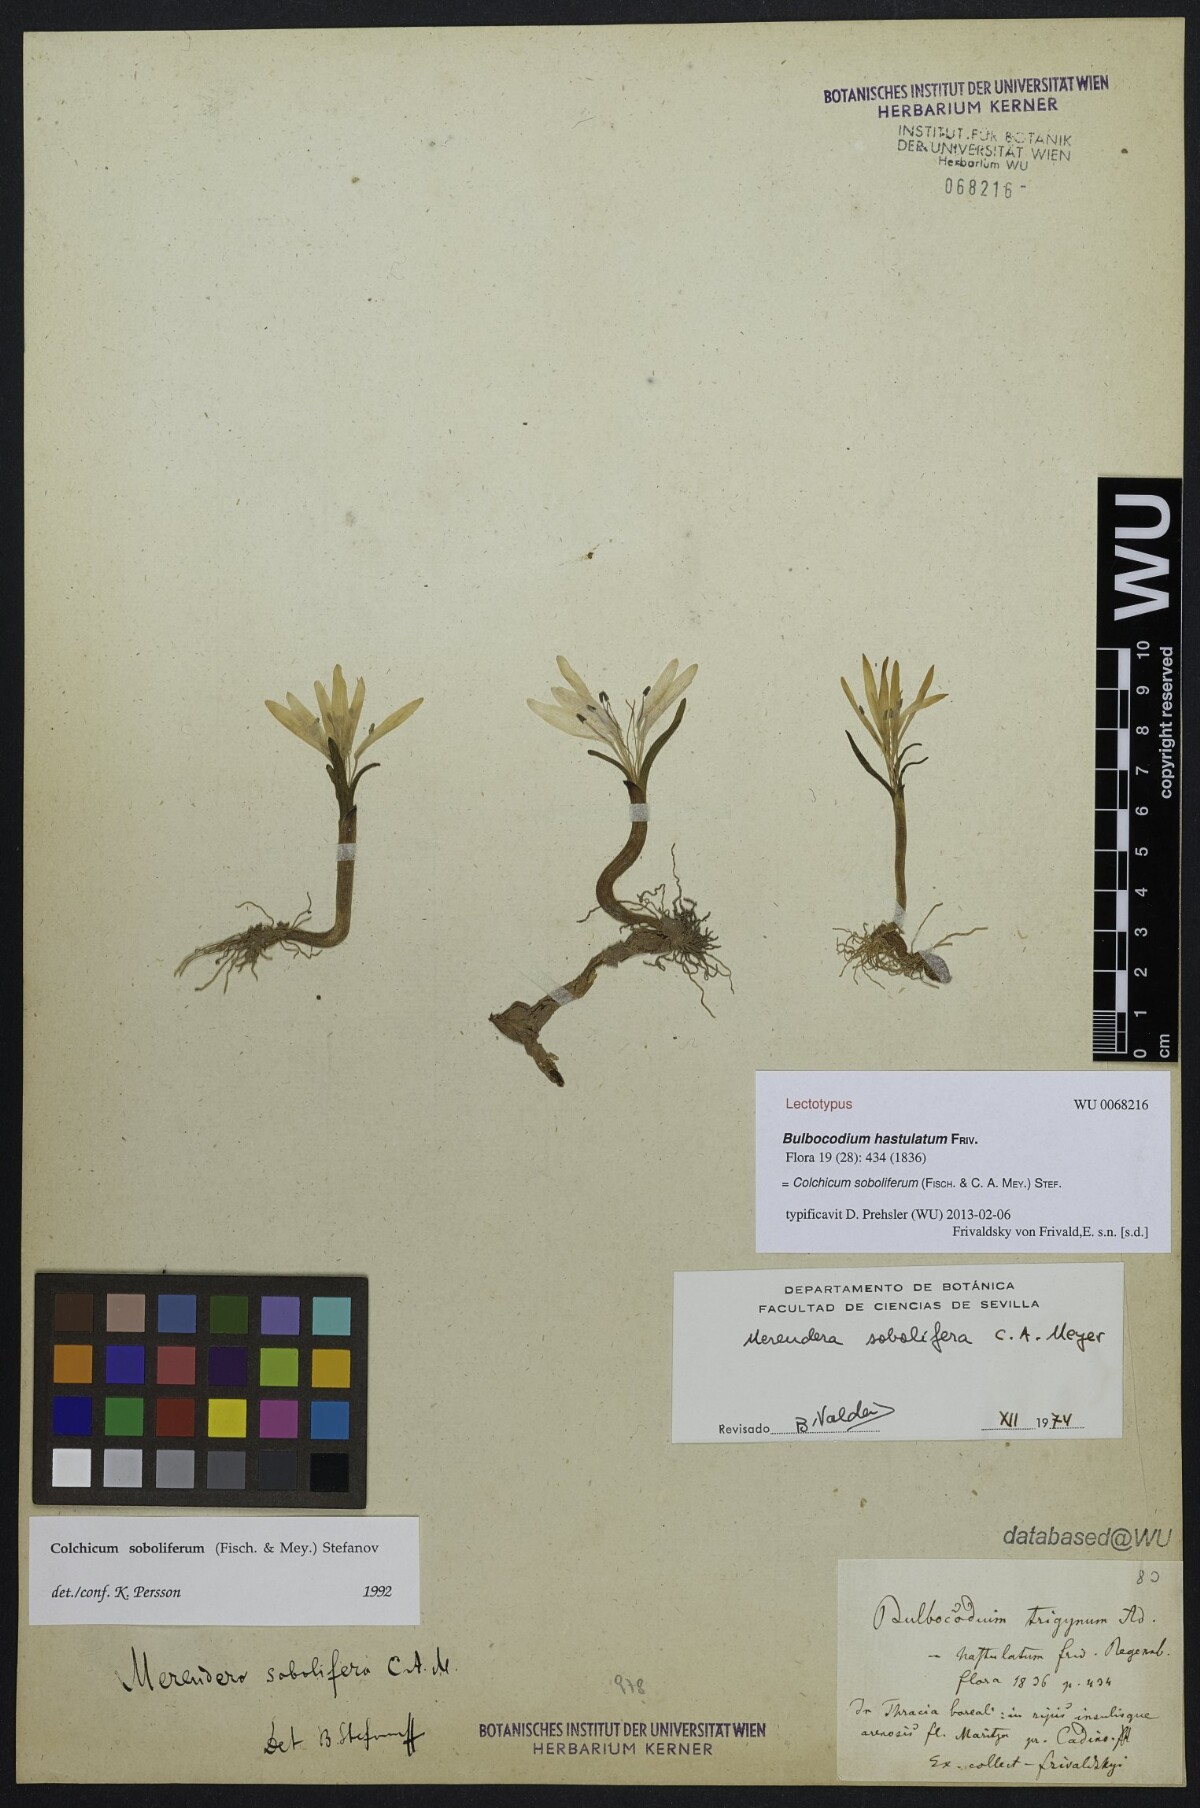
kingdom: Plantae
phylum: Tracheophyta
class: Liliopsida
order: Liliales
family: Colchicaceae
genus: Colchicum
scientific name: Colchicum soboliferum
